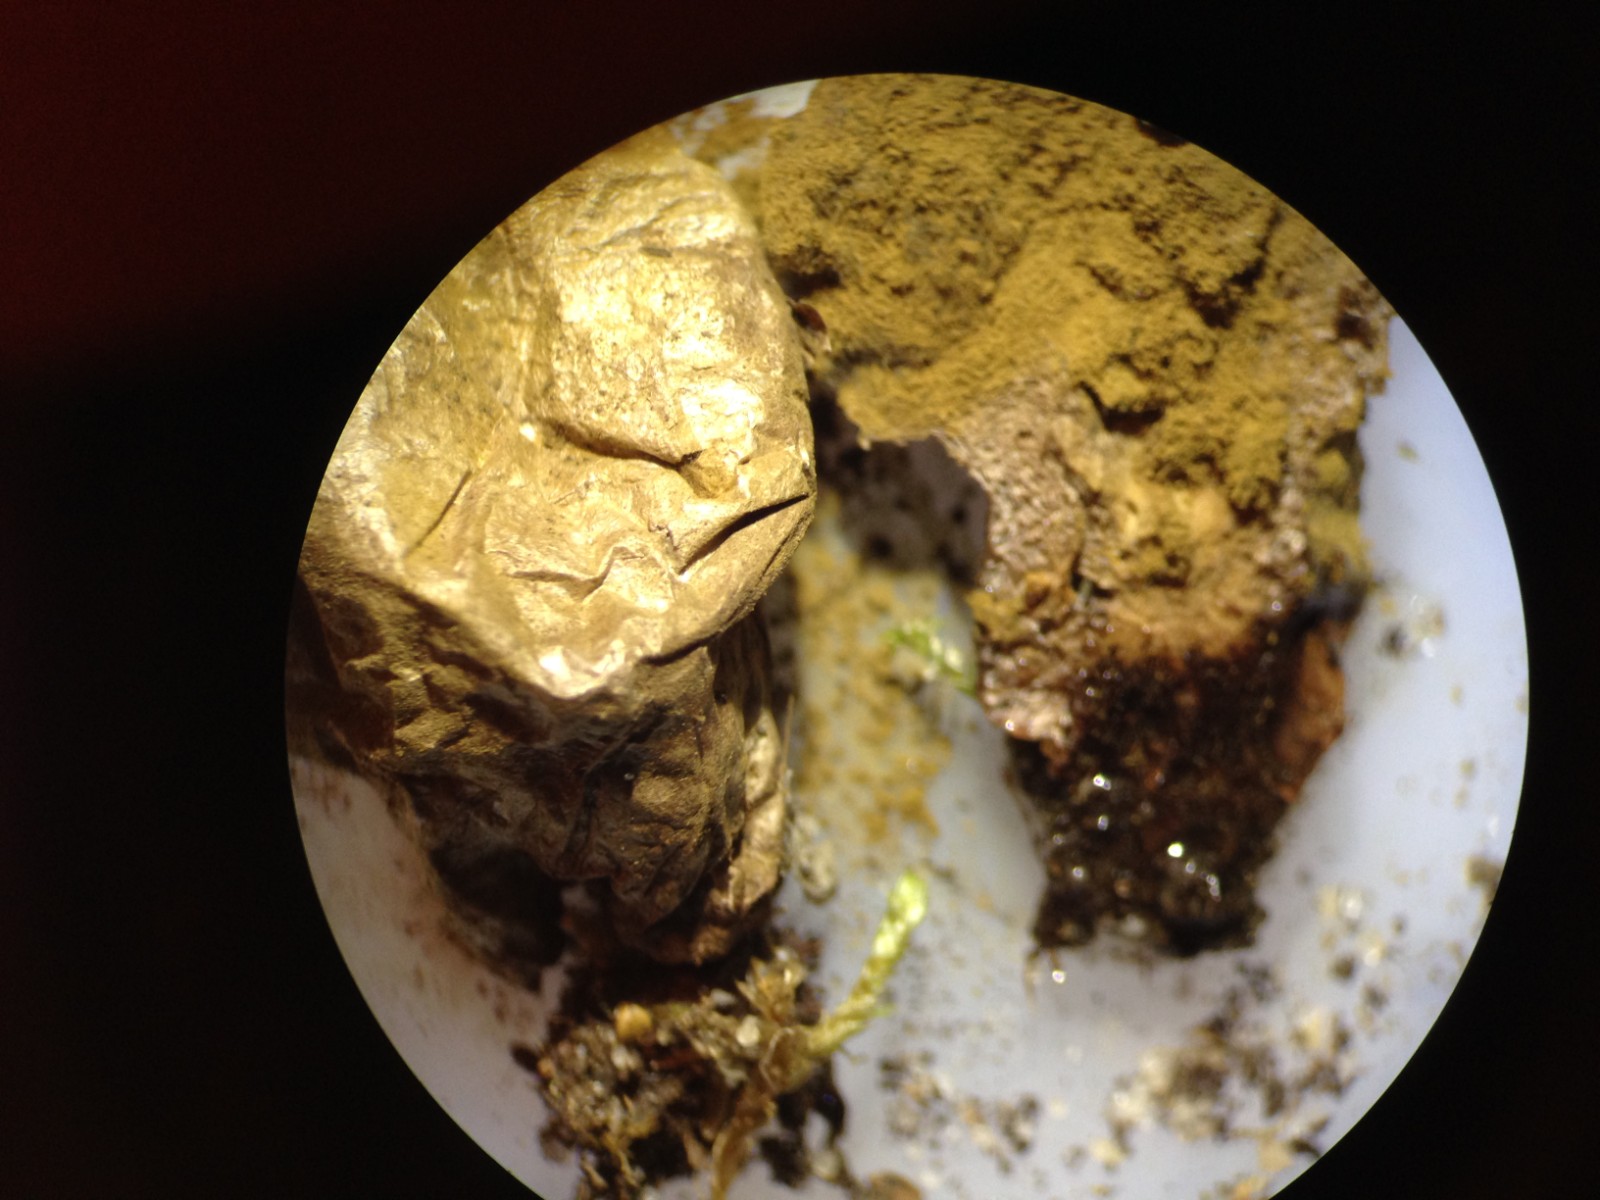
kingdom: Fungi
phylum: Basidiomycota
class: Agaricomycetes
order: Agaricales
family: Lycoperdaceae
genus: Lycoperdon
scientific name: Lycoperdon lividum
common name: mark-støvbold
